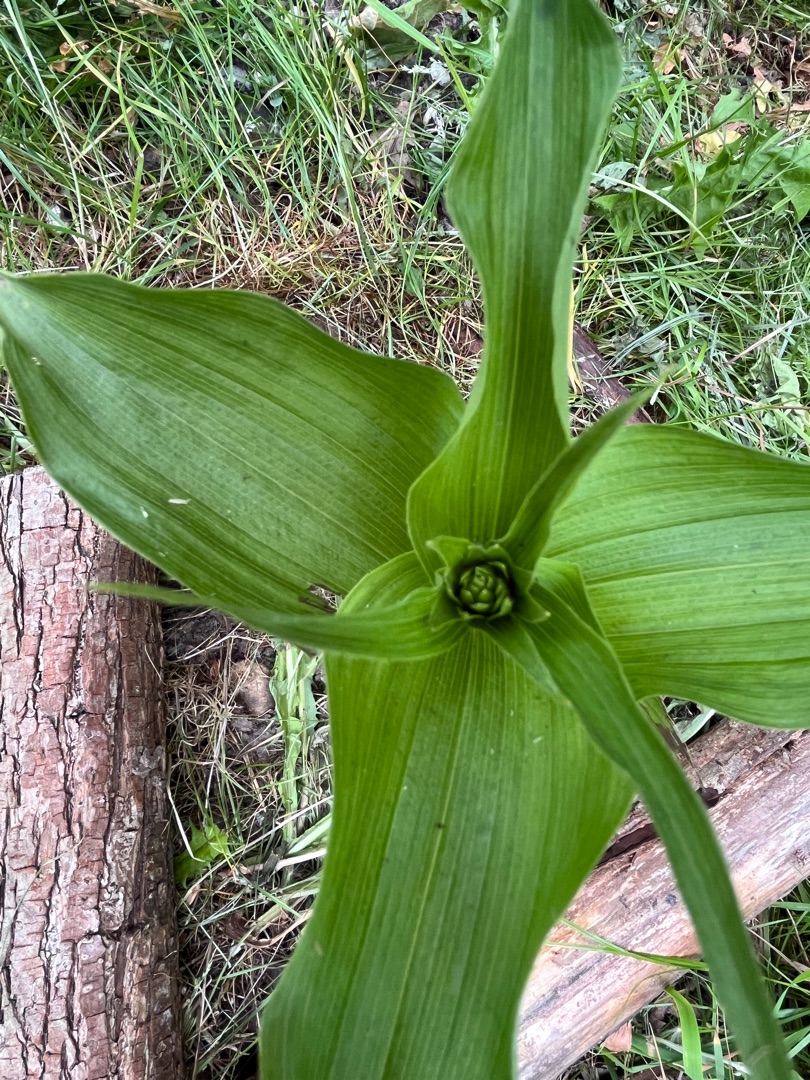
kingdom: Plantae
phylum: Tracheophyta
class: Liliopsida
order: Asparagales
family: Orchidaceae
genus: Epipactis
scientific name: Epipactis helleborine
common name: Skov-hullæbe
